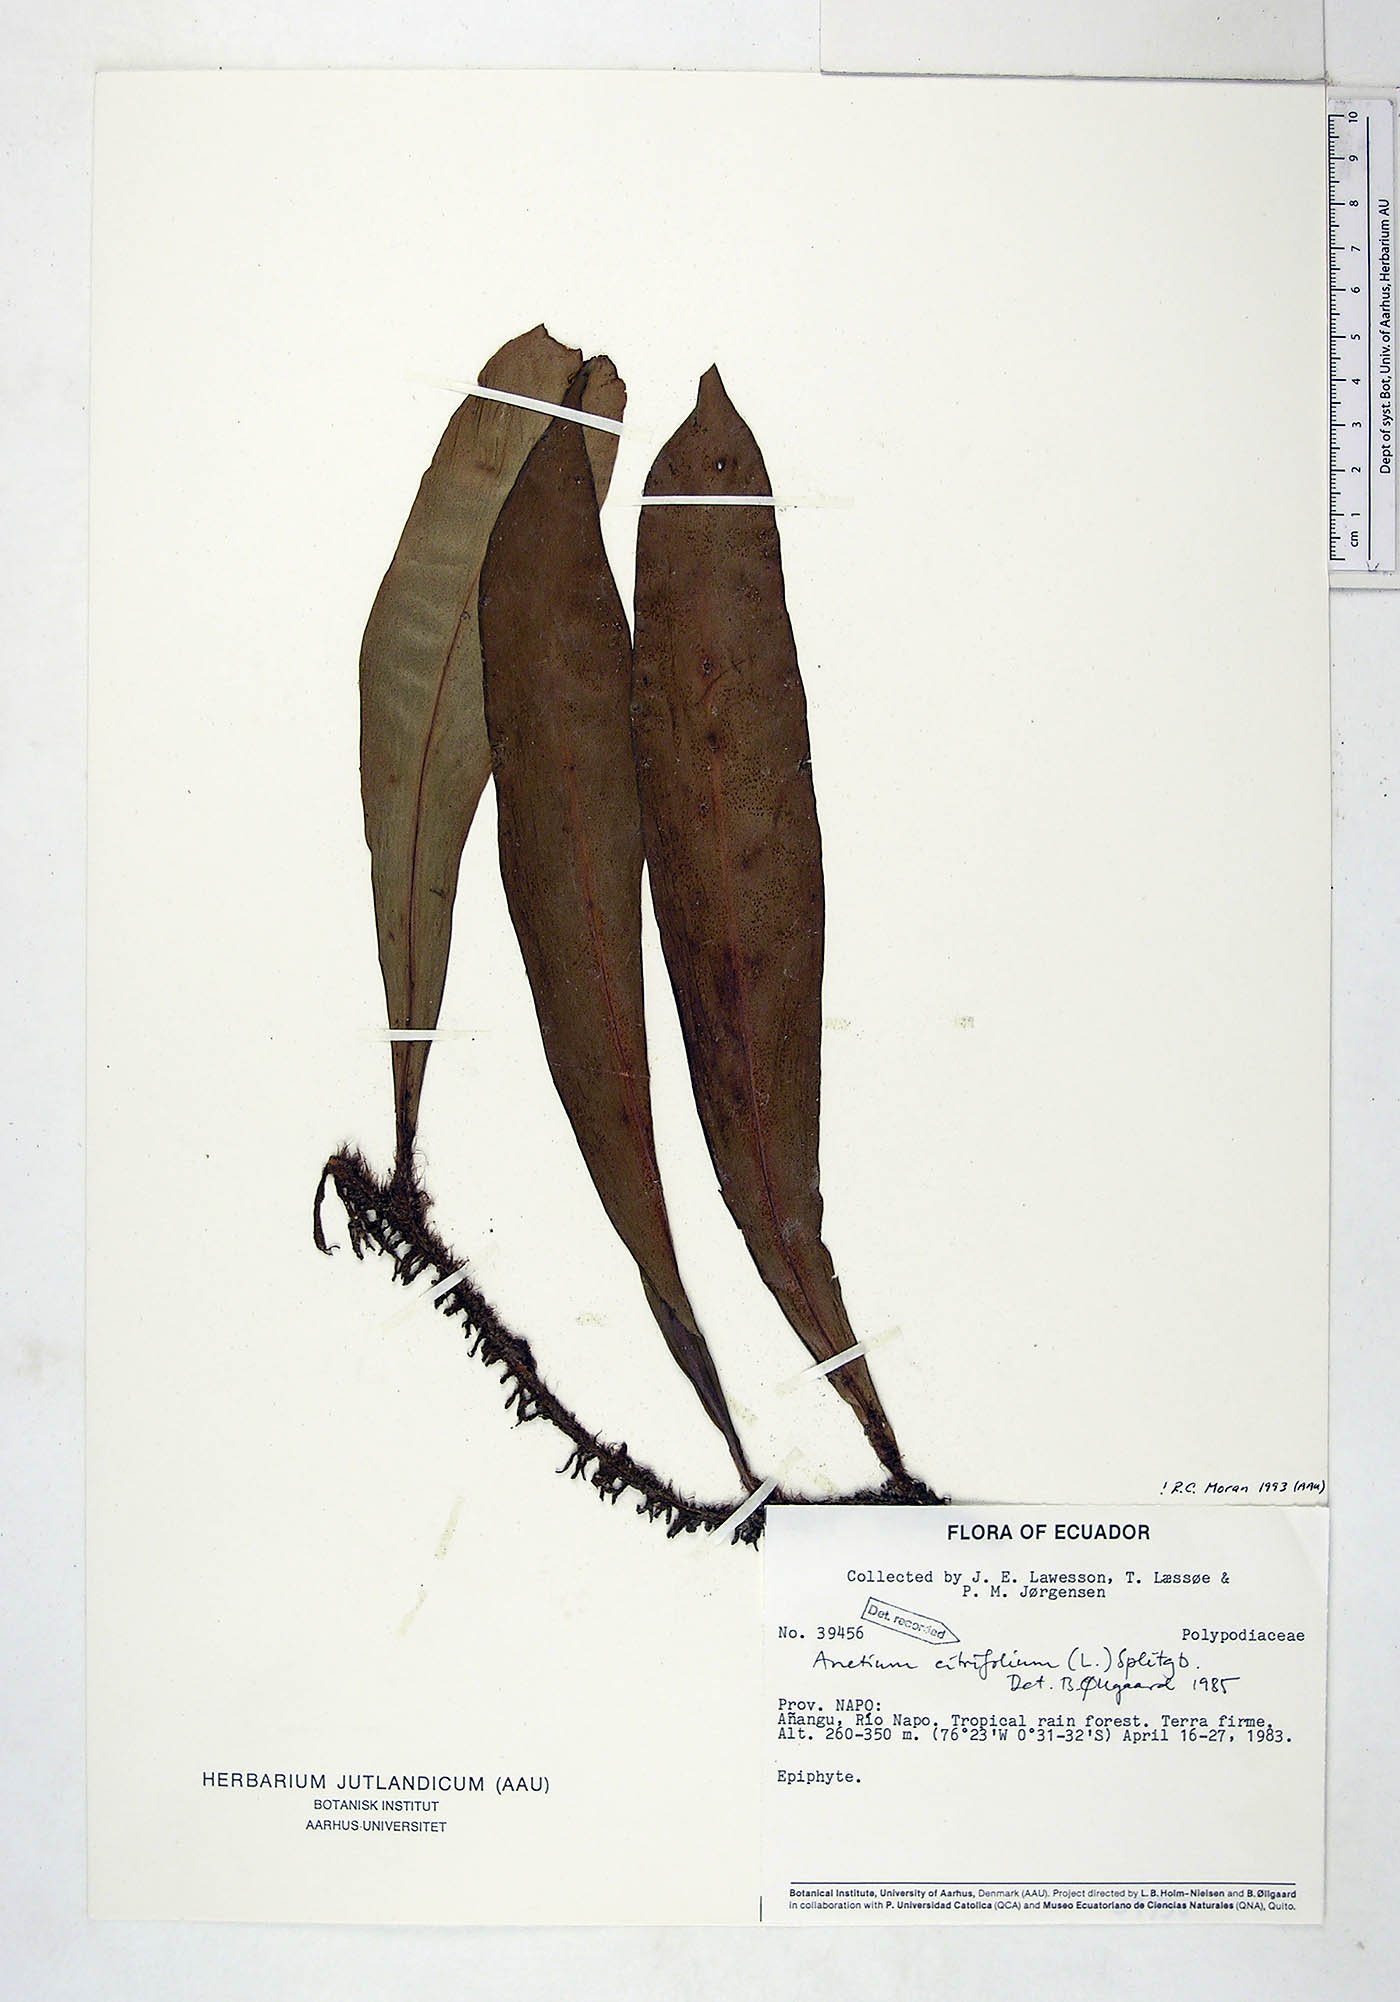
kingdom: Plantae
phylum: Tracheophyta
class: Polypodiopsida
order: Polypodiales
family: Pteridaceae
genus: Polytaenium
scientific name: Polytaenium citrifolium
